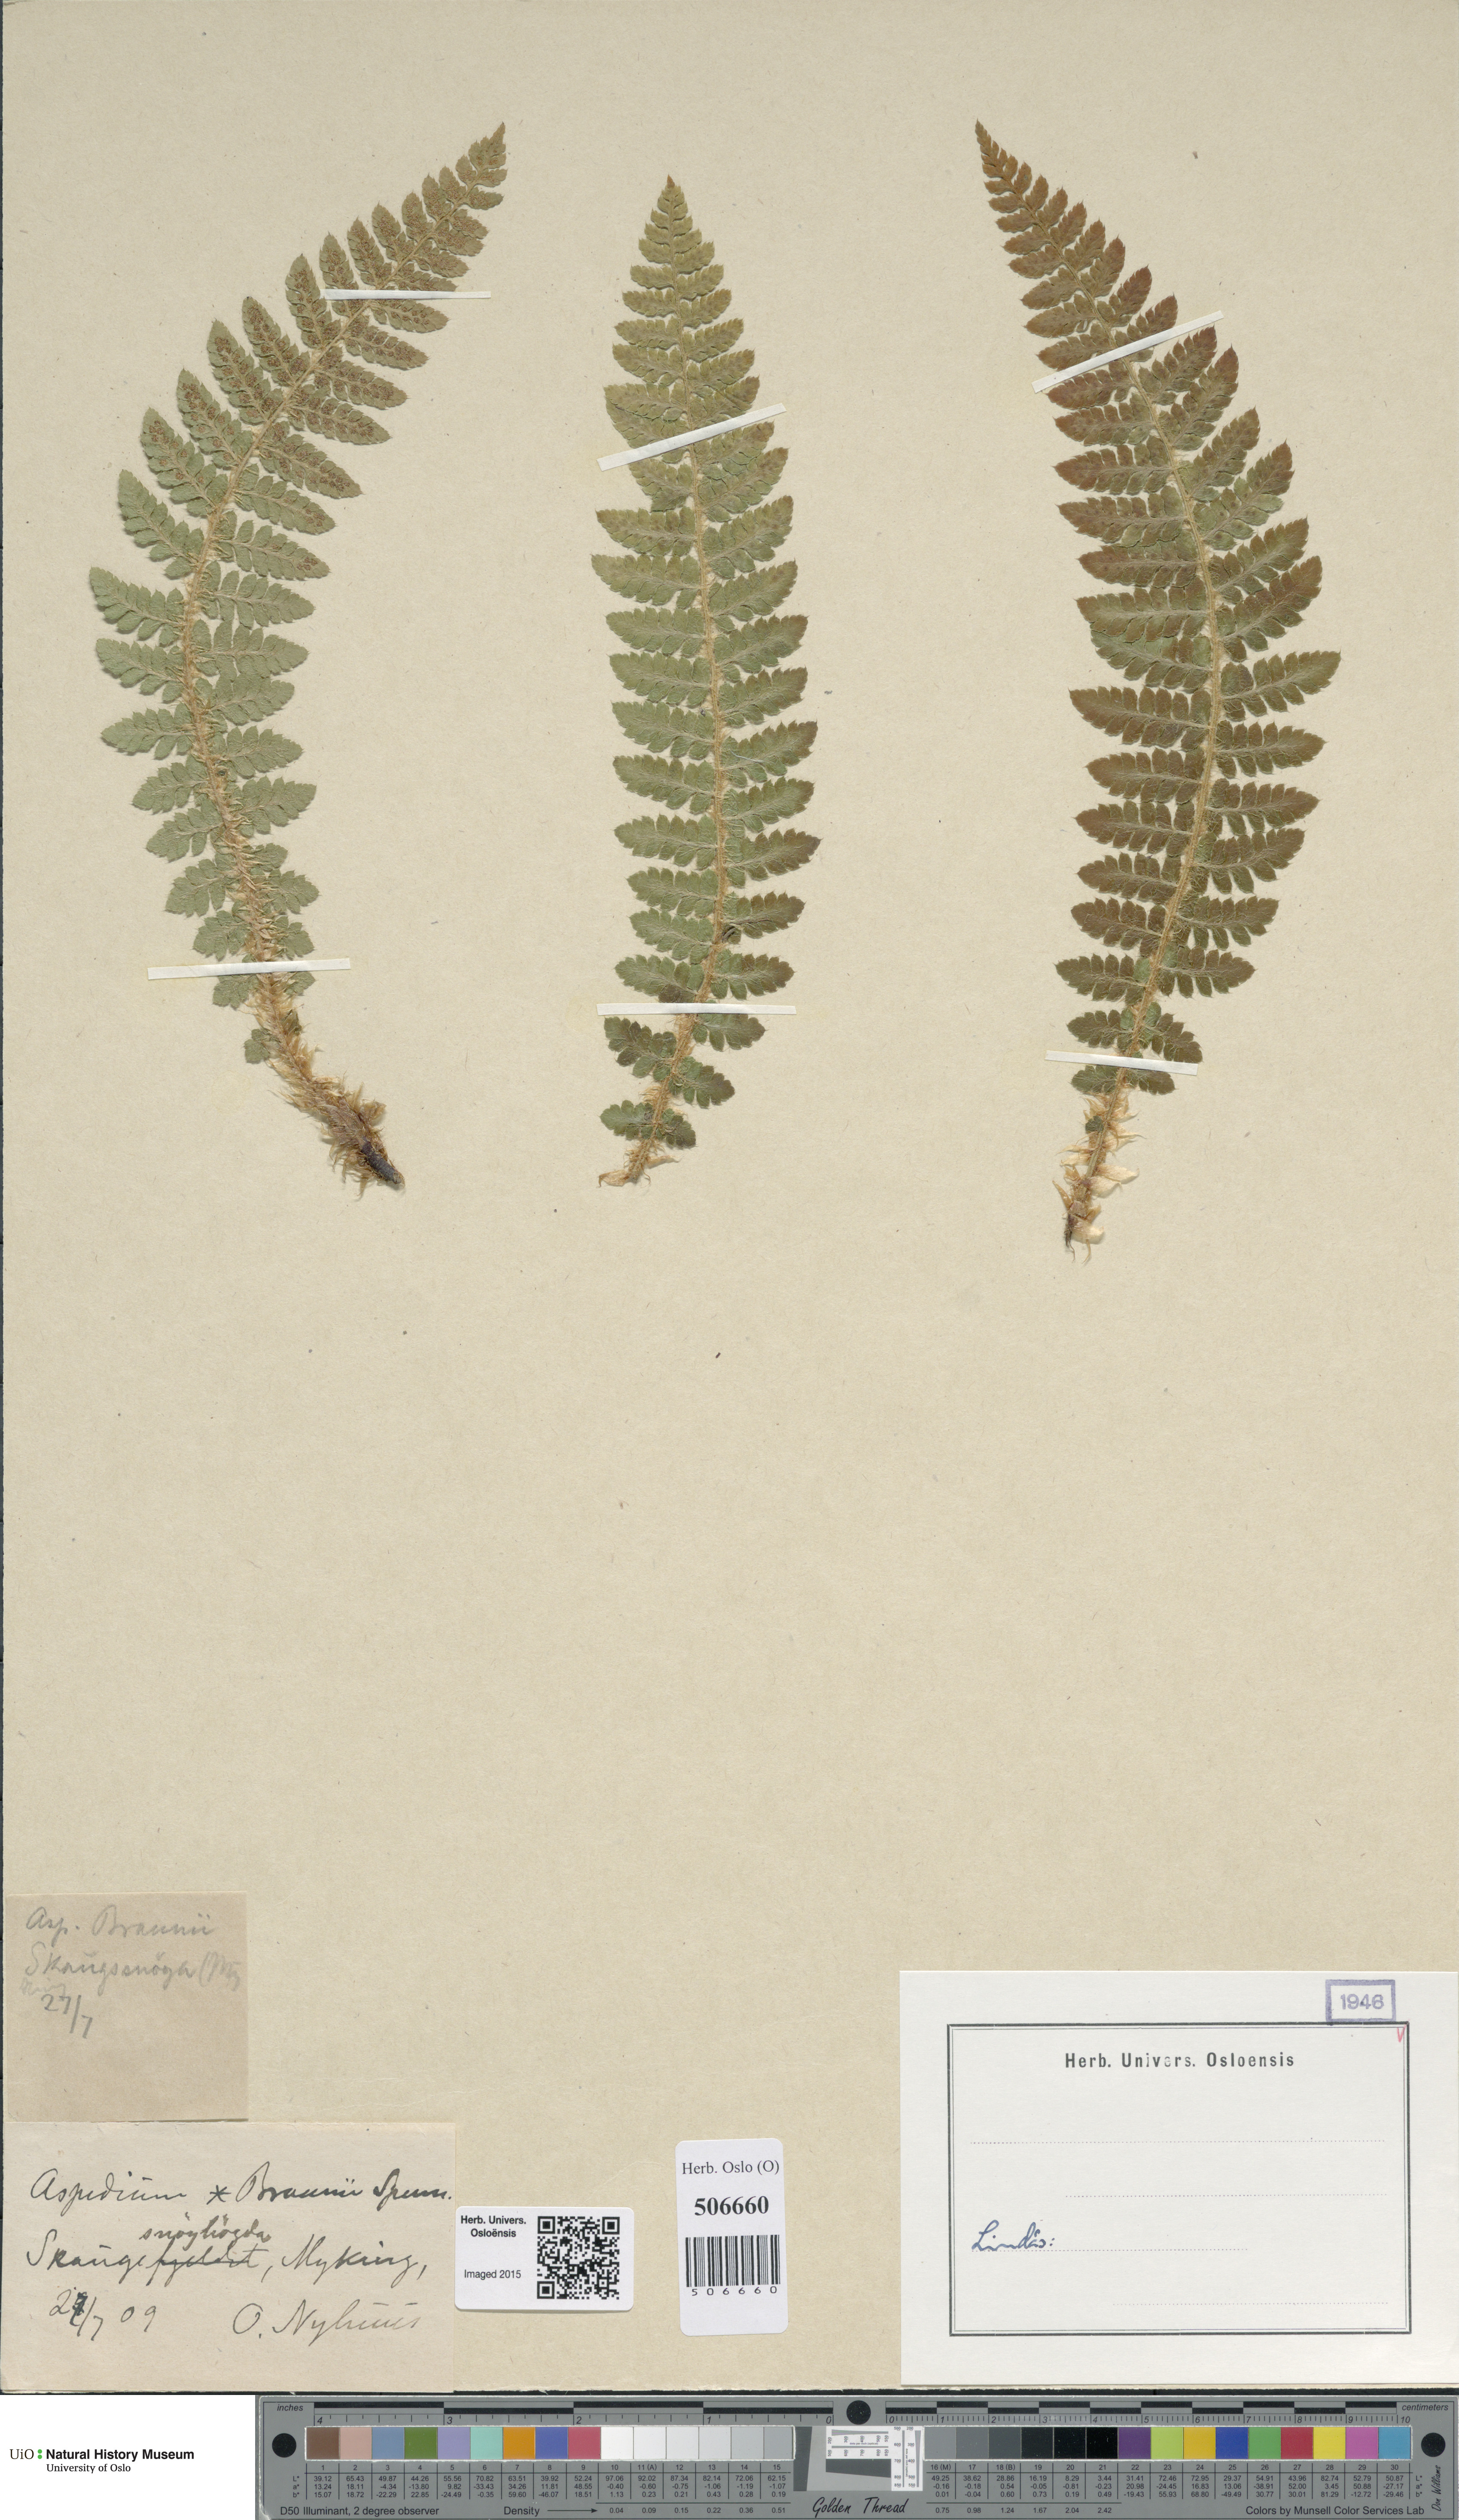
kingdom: Plantae
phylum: Tracheophyta
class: Polypodiopsida
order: Polypodiales
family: Dryopteridaceae
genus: Polystichum
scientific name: Polystichum braunii
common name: Braun's holly fern
